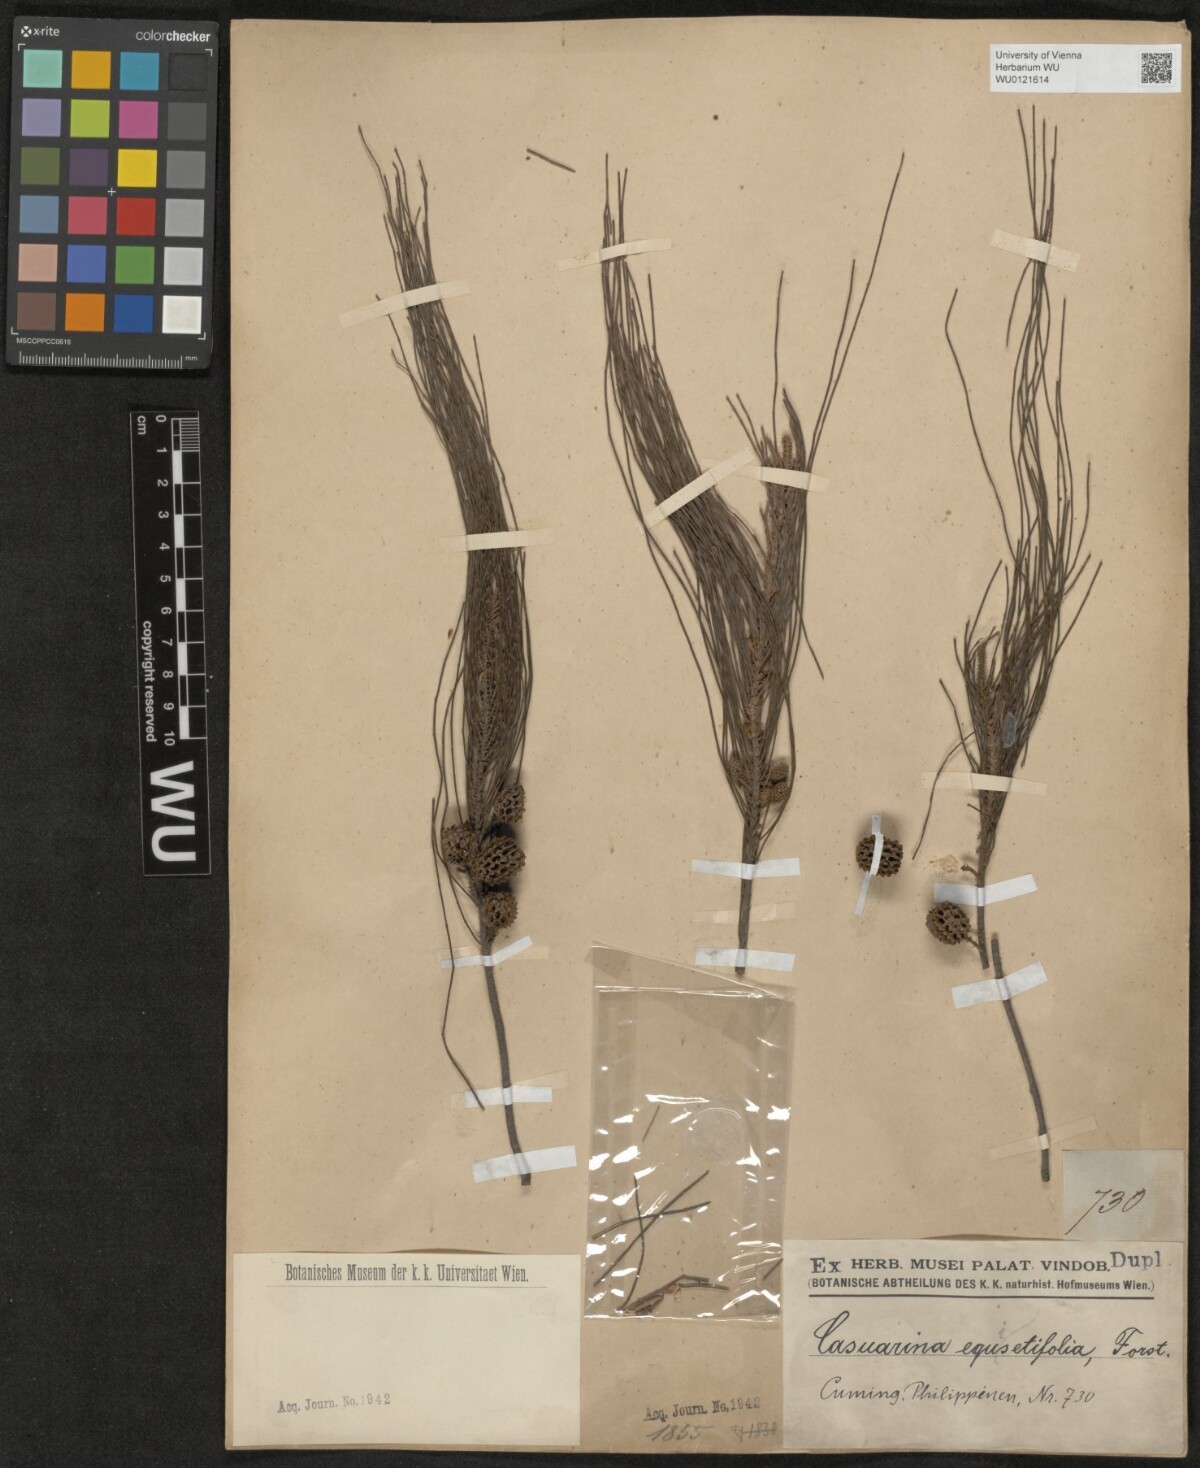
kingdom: Plantae
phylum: Tracheophyta
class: Magnoliopsida
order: Fagales
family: Casuarinaceae
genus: Casuarina
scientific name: Casuarina equisetifolia
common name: Beach sheoak
